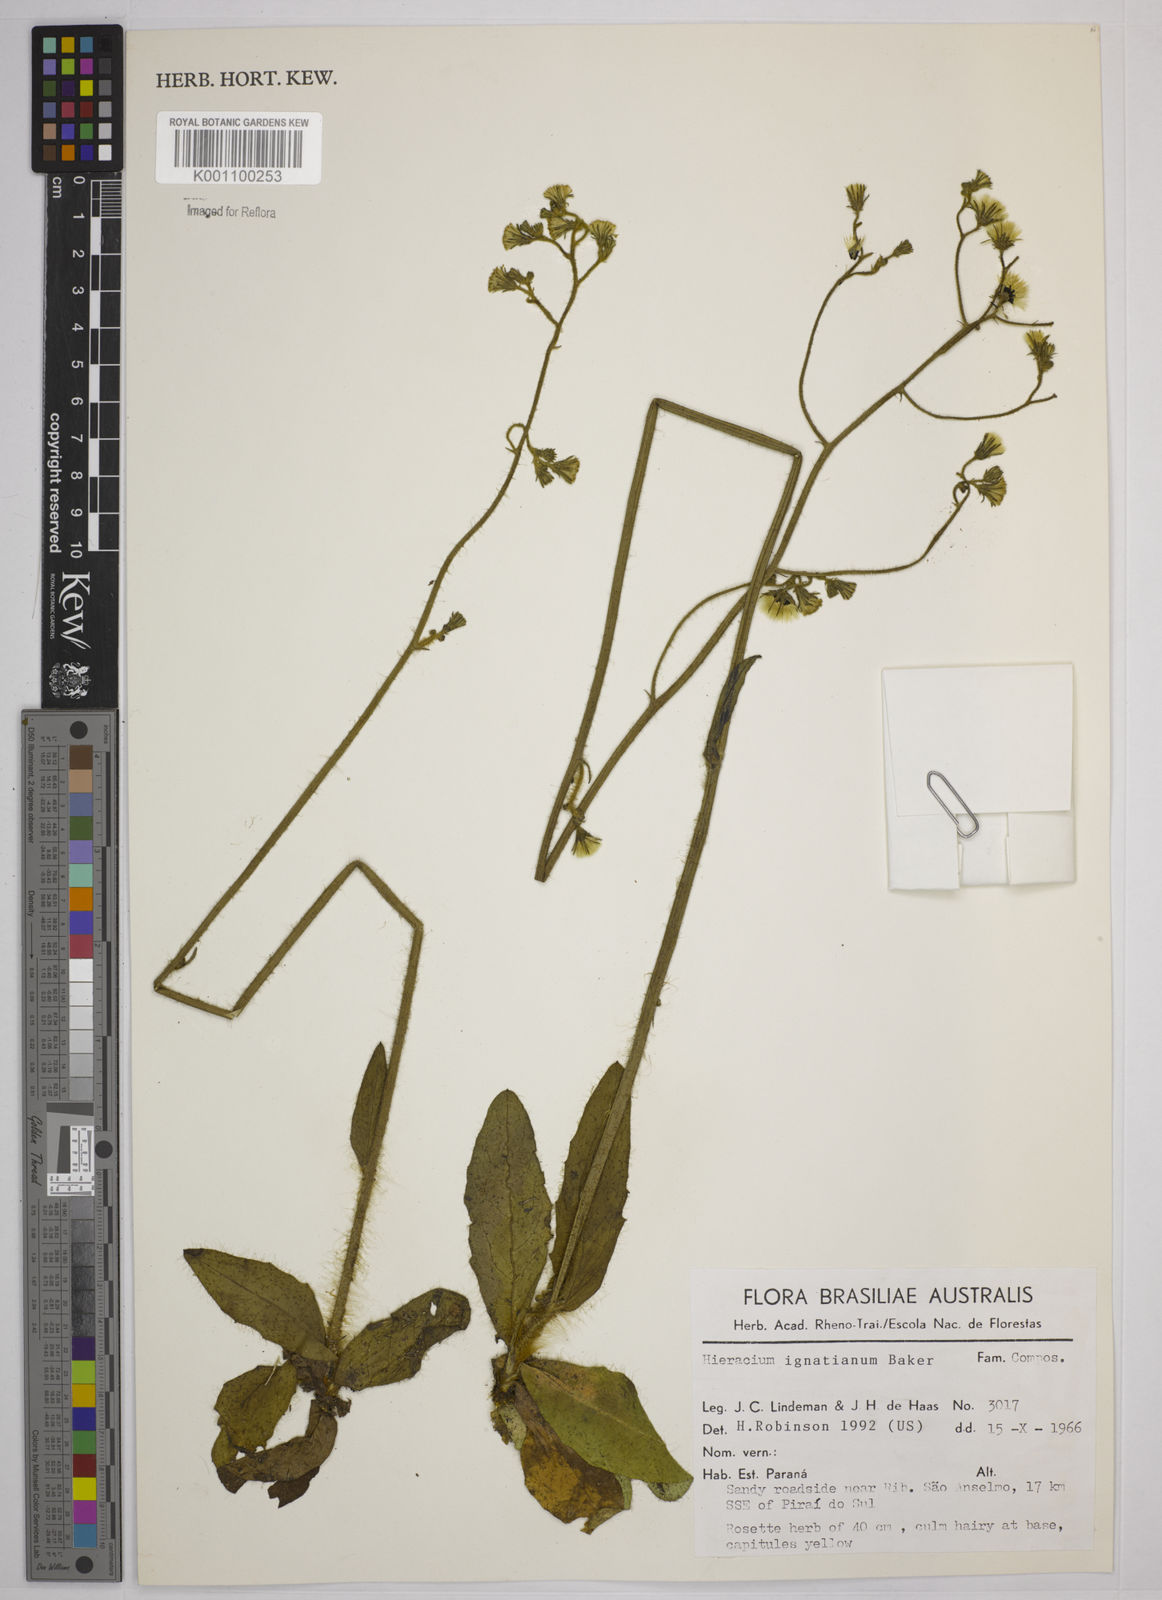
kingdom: Plantae
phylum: Tracheophyta
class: Magnoliopsida
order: Asterales
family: Asteraceae
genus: Hieracium
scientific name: Hieracium ignatianum
